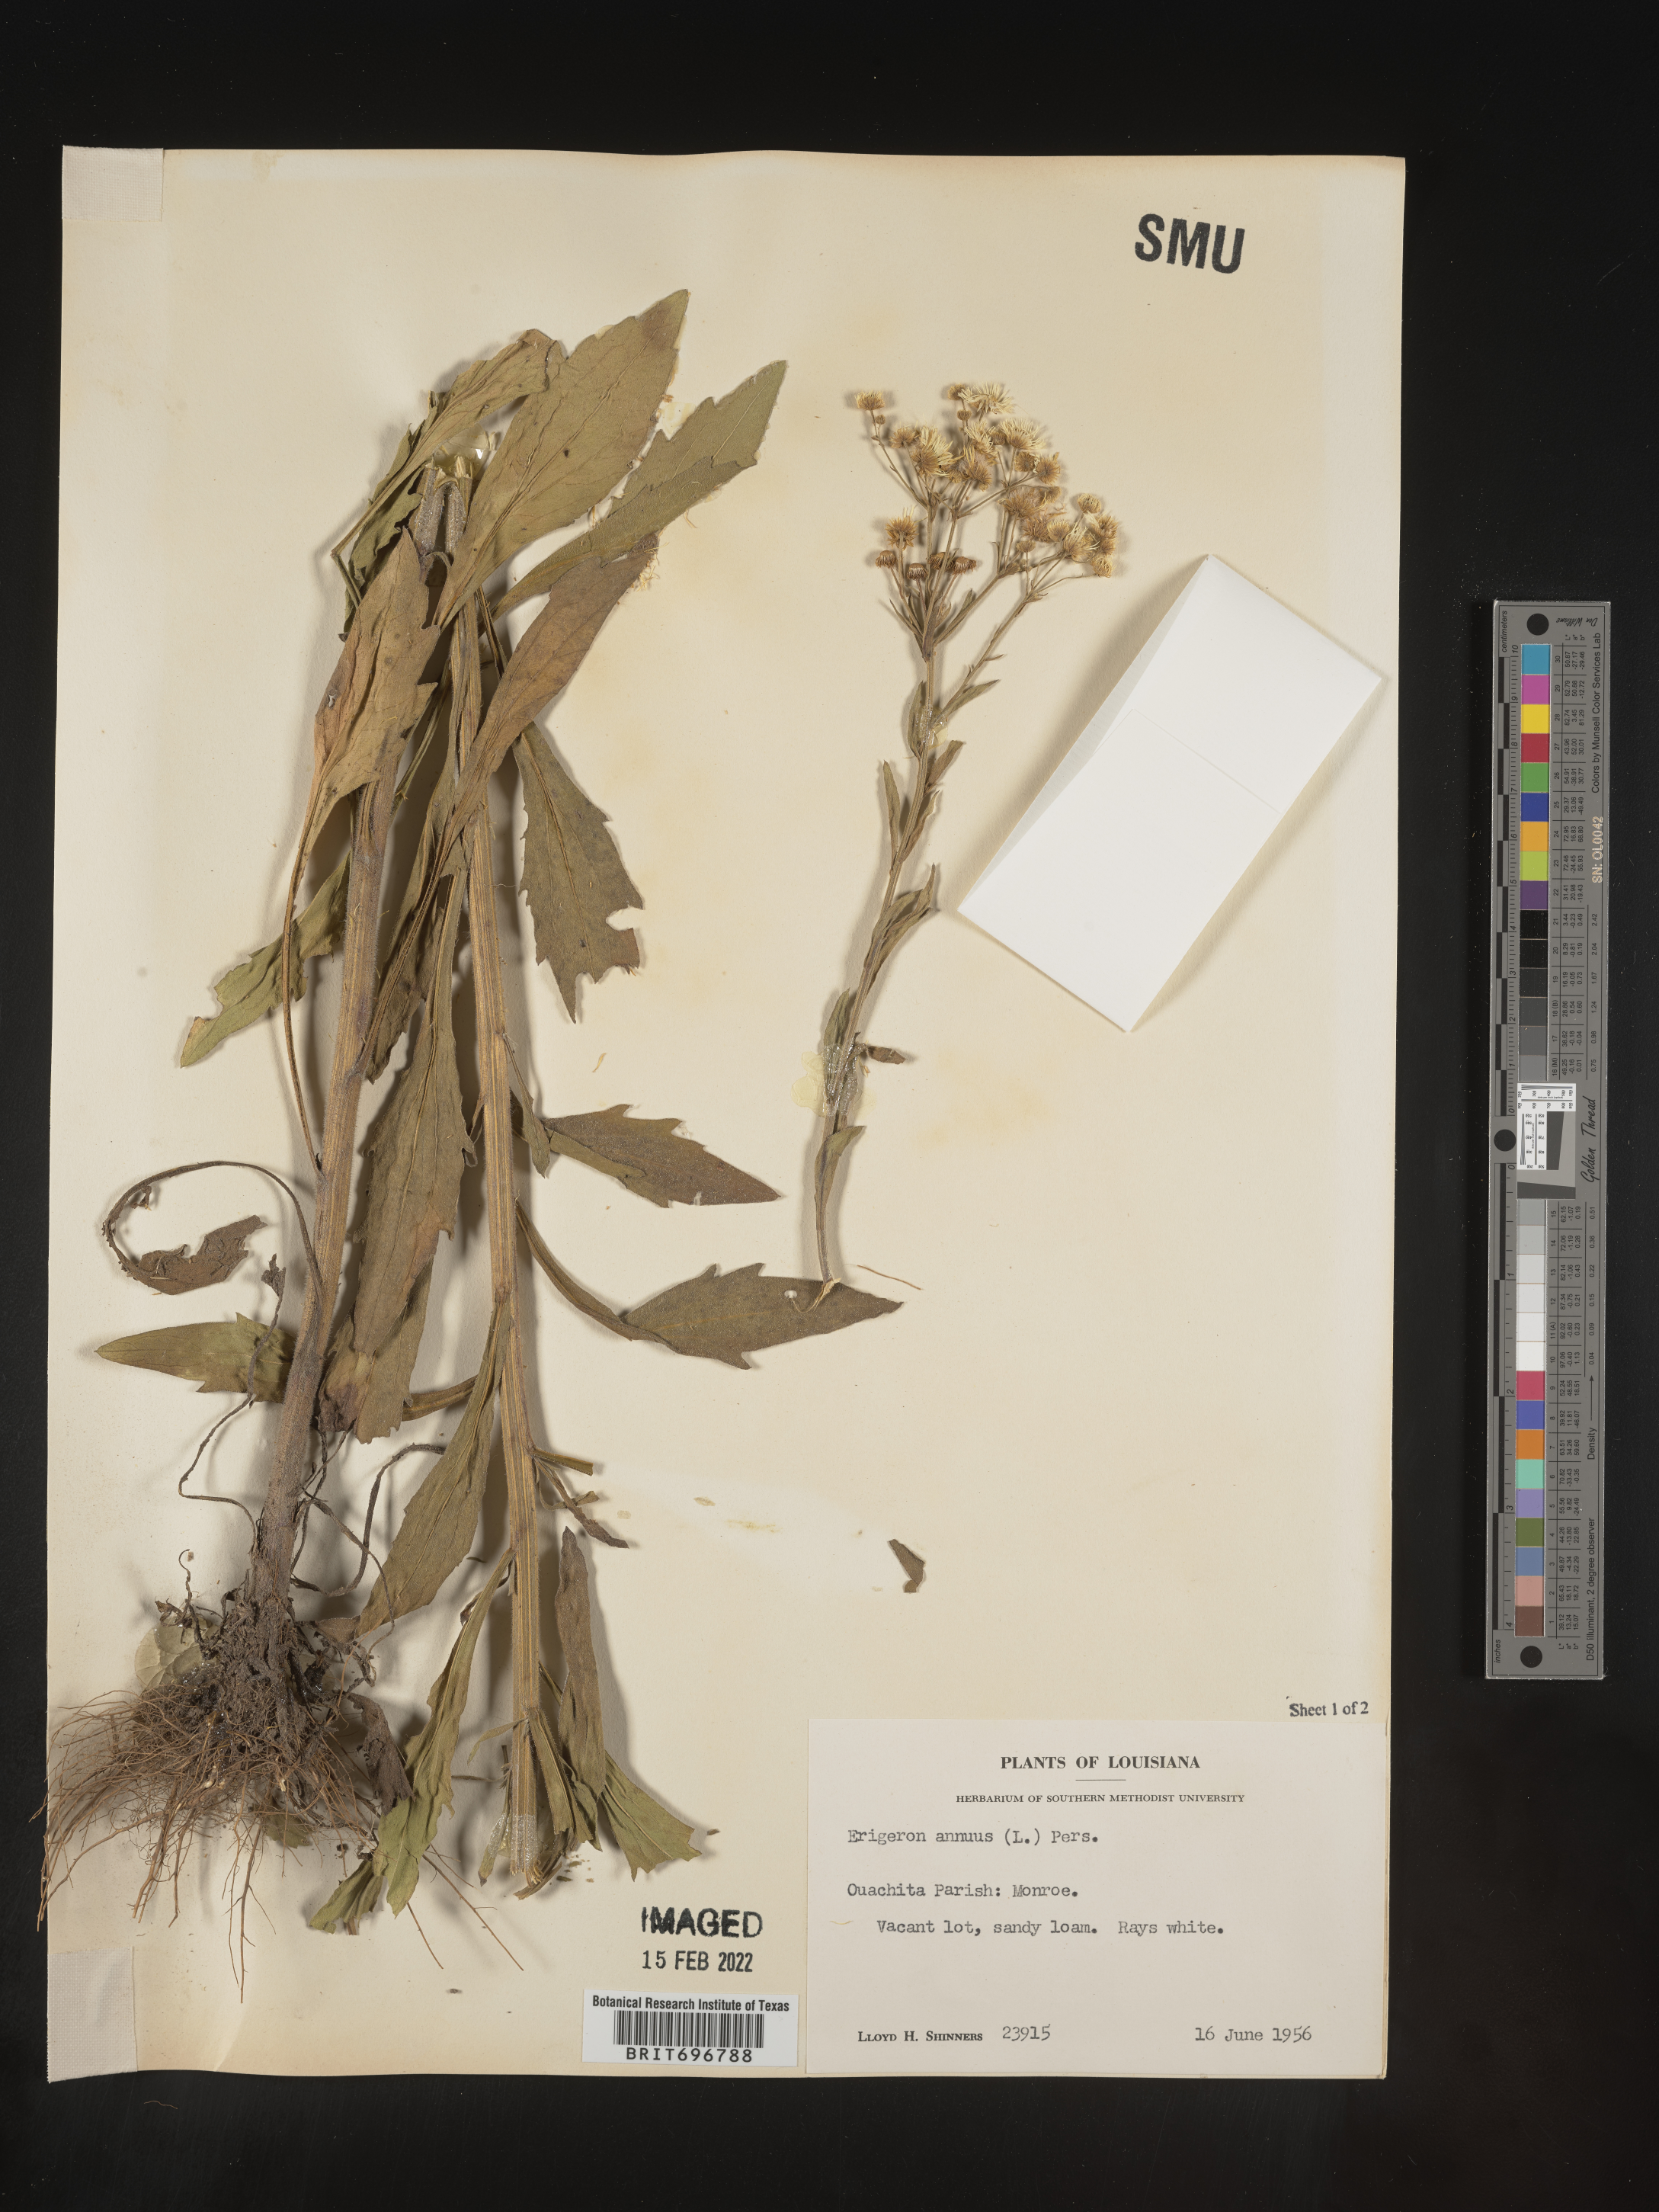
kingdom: Plantae
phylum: Tracheophyta
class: Magnoliopsida
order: Asterales
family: Asteraceae
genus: Erigeron
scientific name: Erigeron annuus
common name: Tall fleabane
